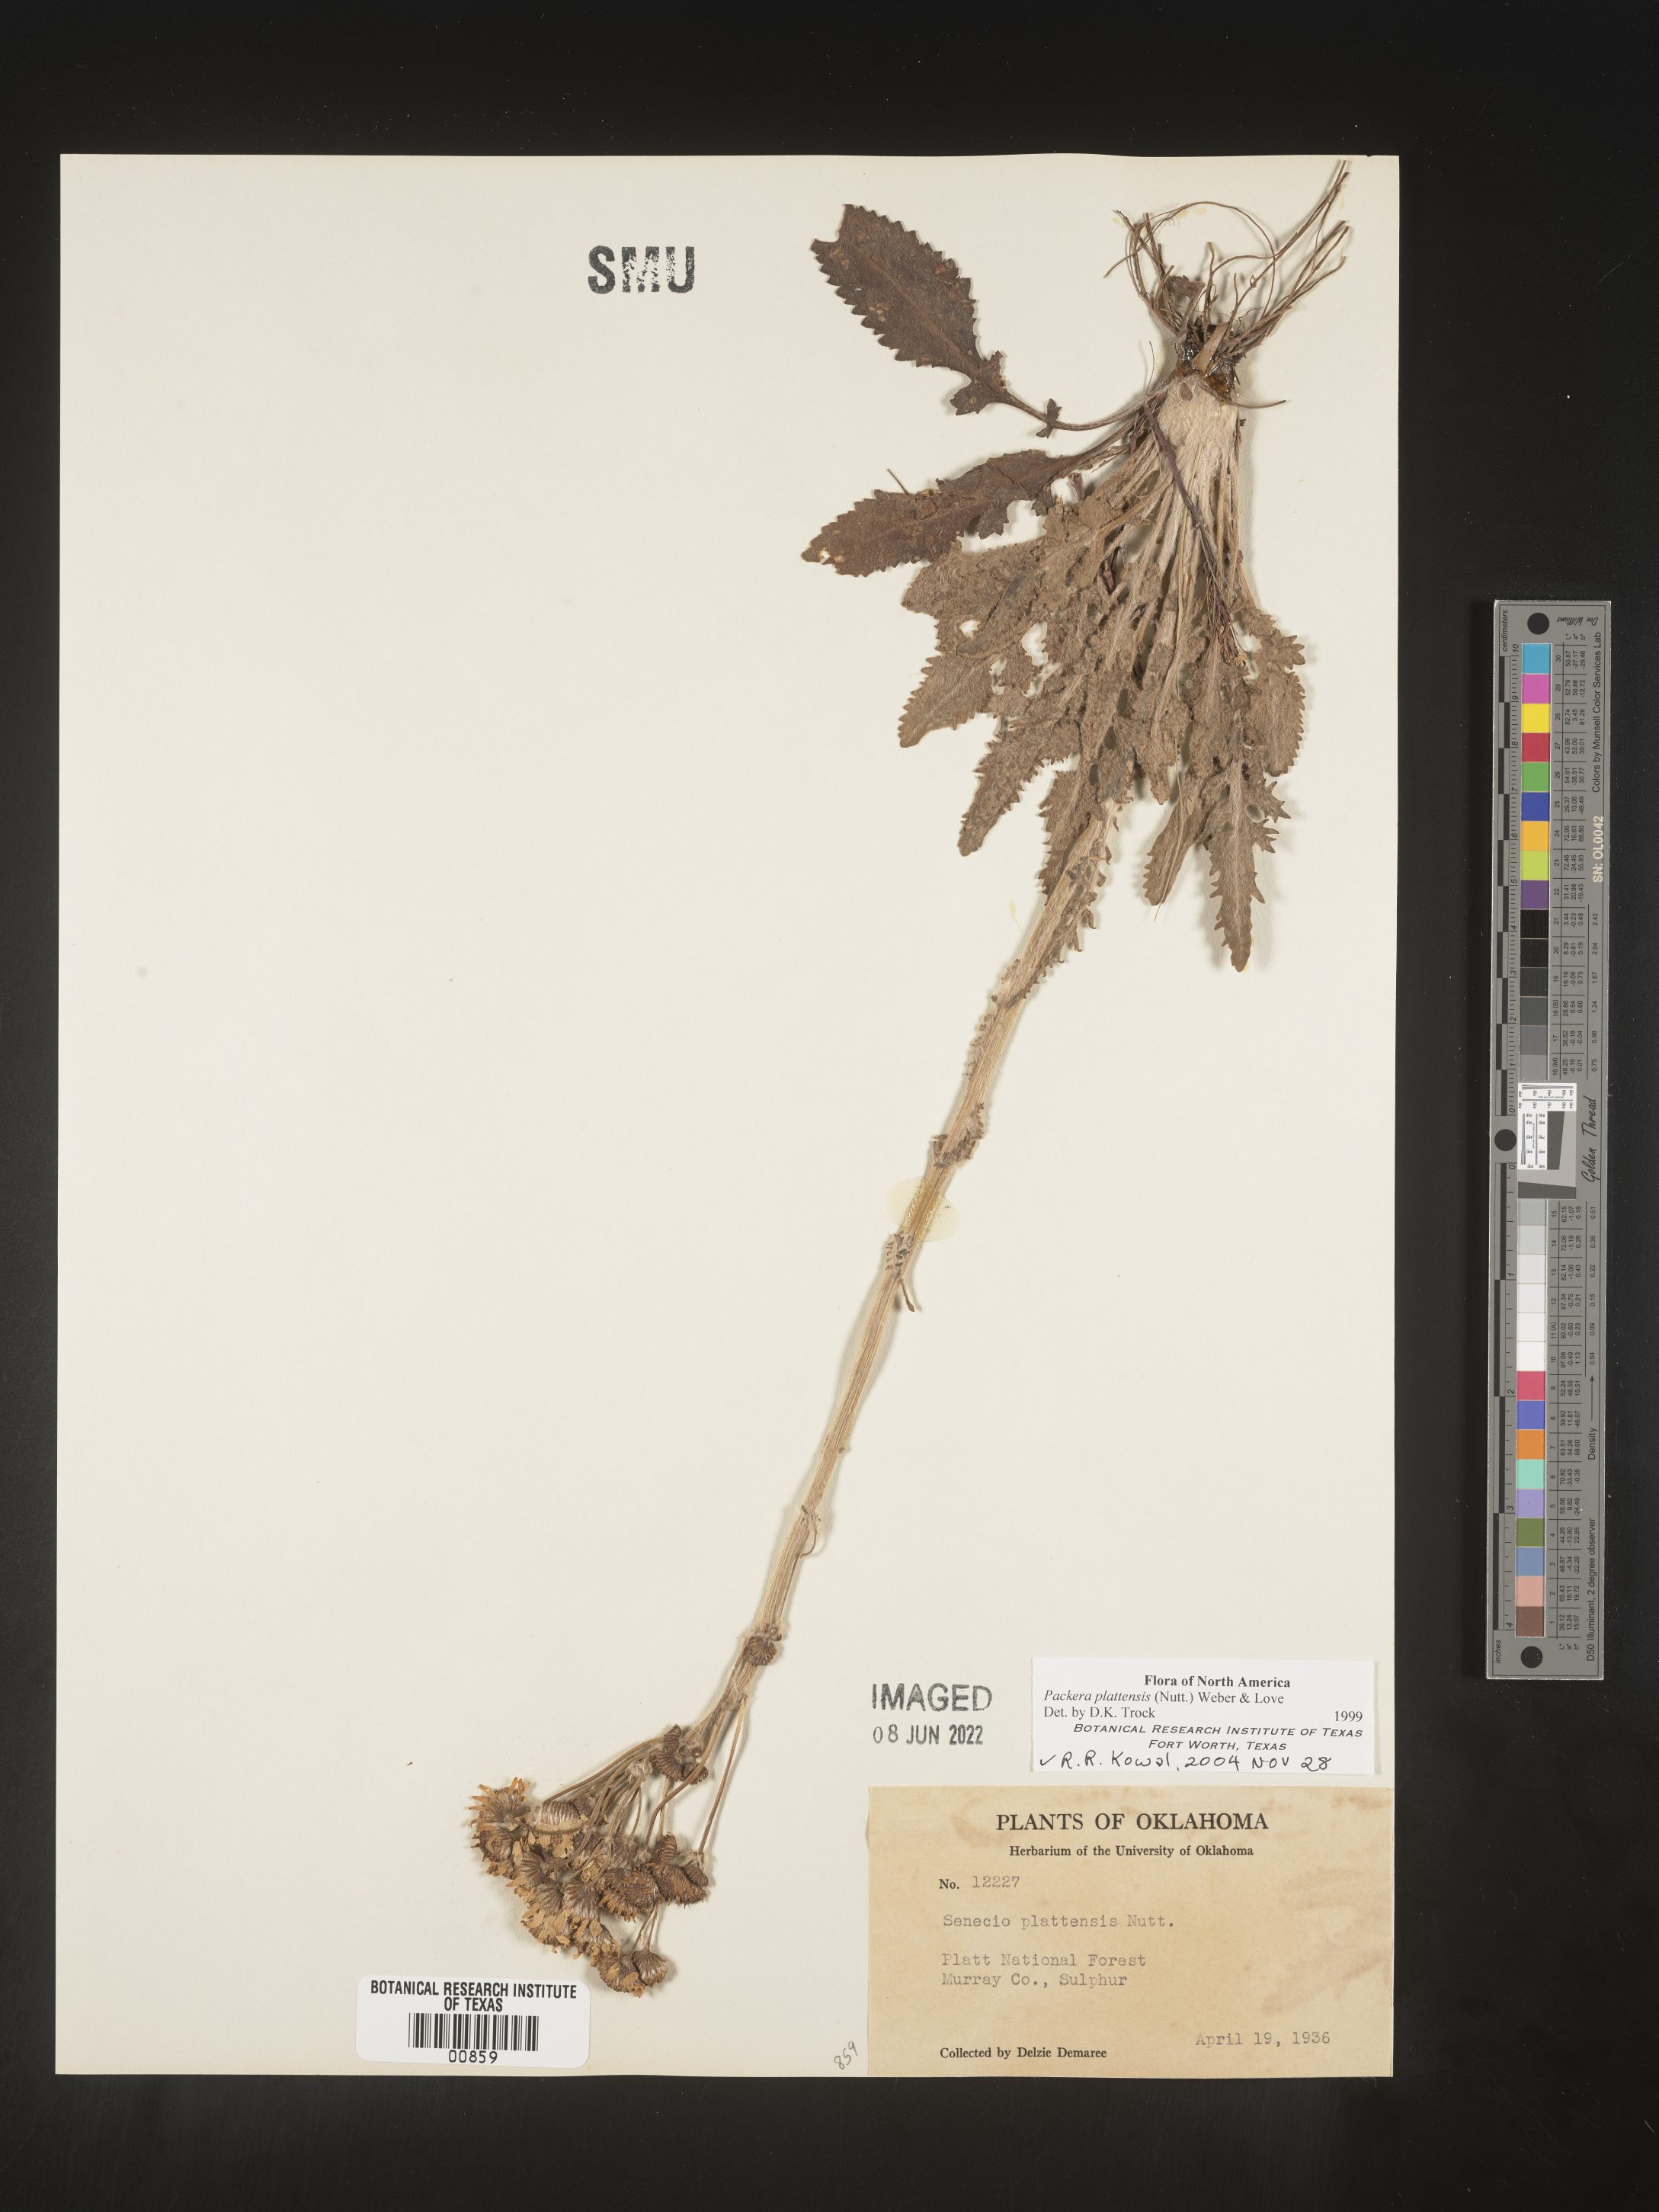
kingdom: Plantae
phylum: Tracheophyta
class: Magnoliopsida
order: Asterales
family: Asteraceae
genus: Packera
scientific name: Packera plattensis
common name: Prairie groundsel
